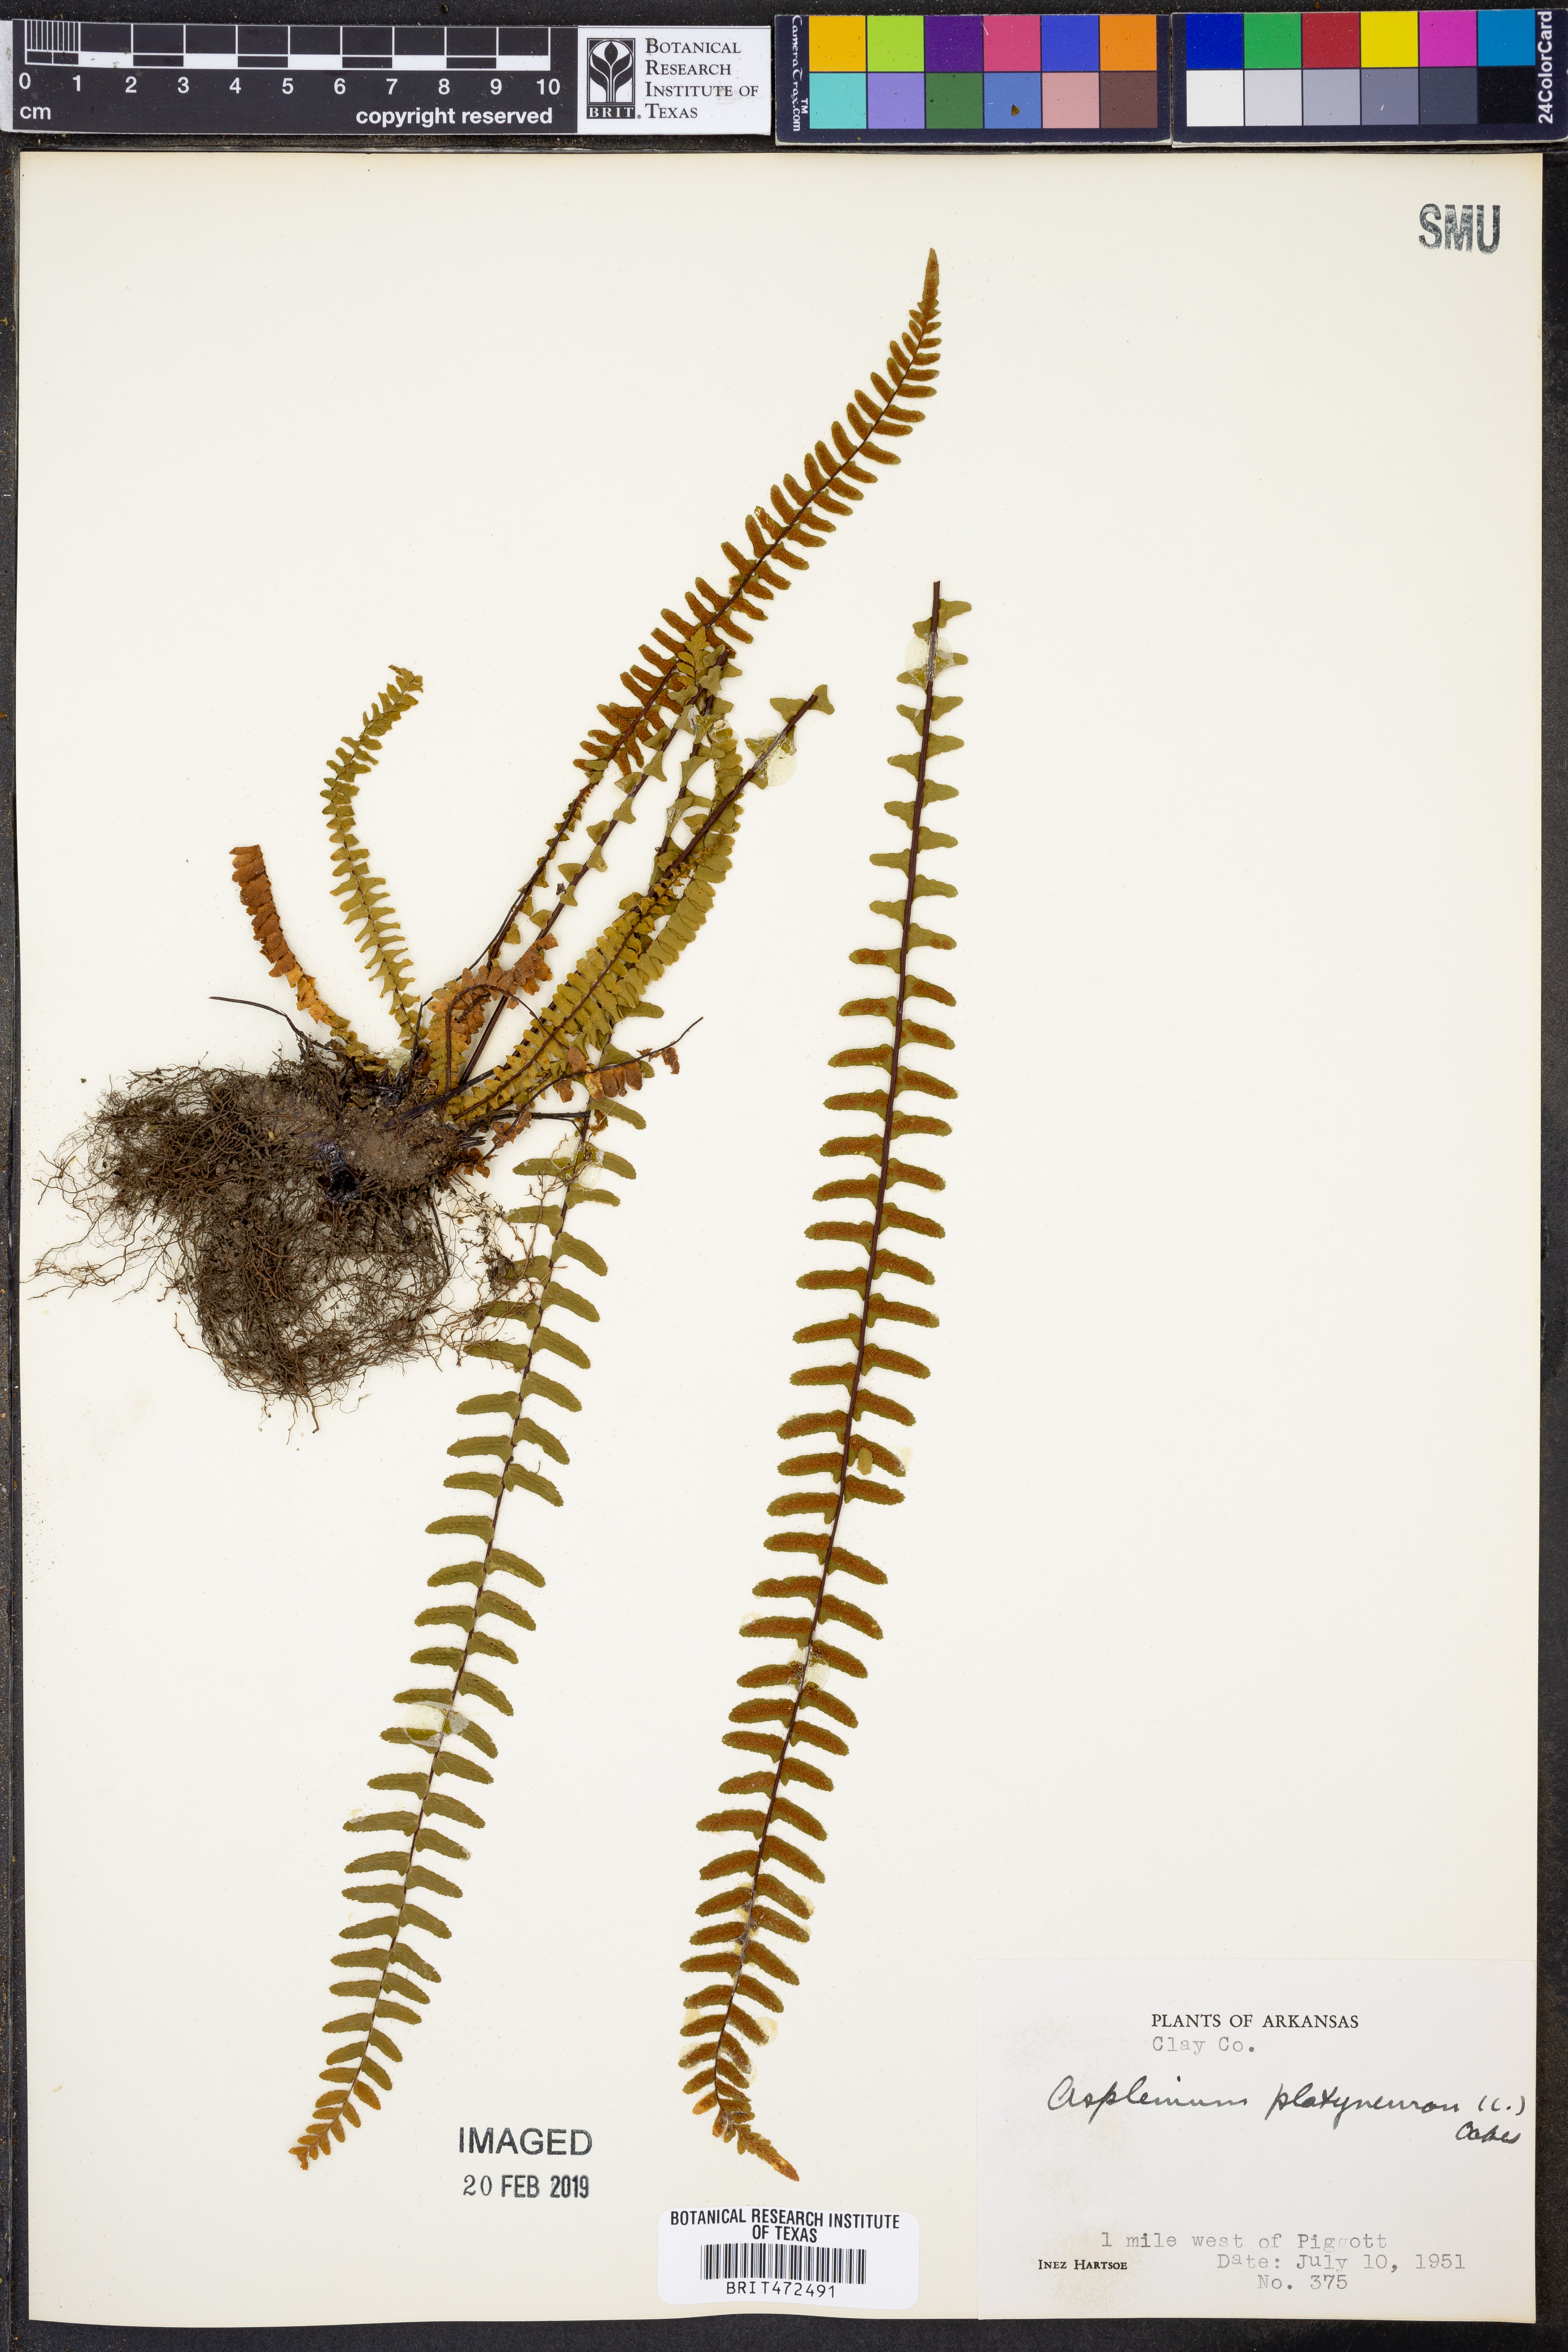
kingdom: Plantae
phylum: Tracheophyta
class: Polypodiopsida
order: Polypodiales
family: Aspleniaceae
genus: Asplenium
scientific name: Asplenium platyneuron
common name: Ebony spleenwort
